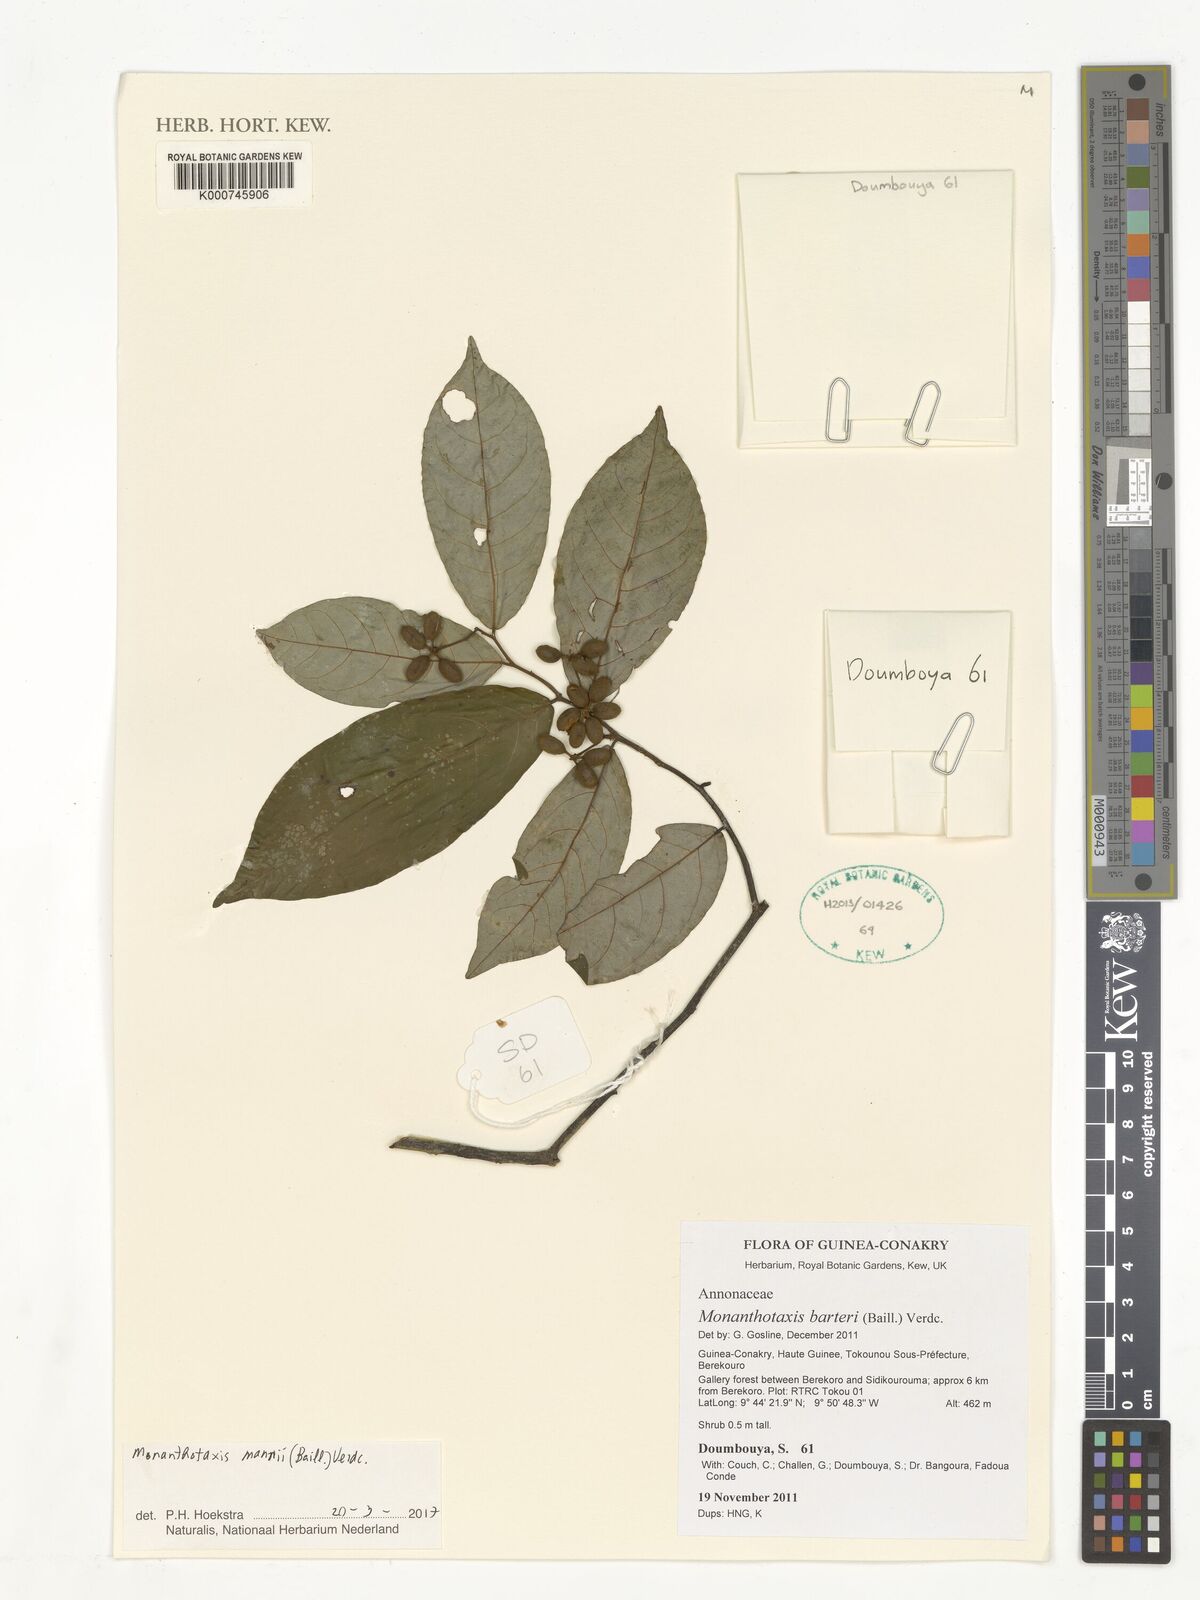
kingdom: Plantae
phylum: Tracheophyta
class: Magnoliopsida
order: Magnoliales
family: Annonaceae
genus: Monanthotaxis
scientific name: Monanthotaxis mannii
